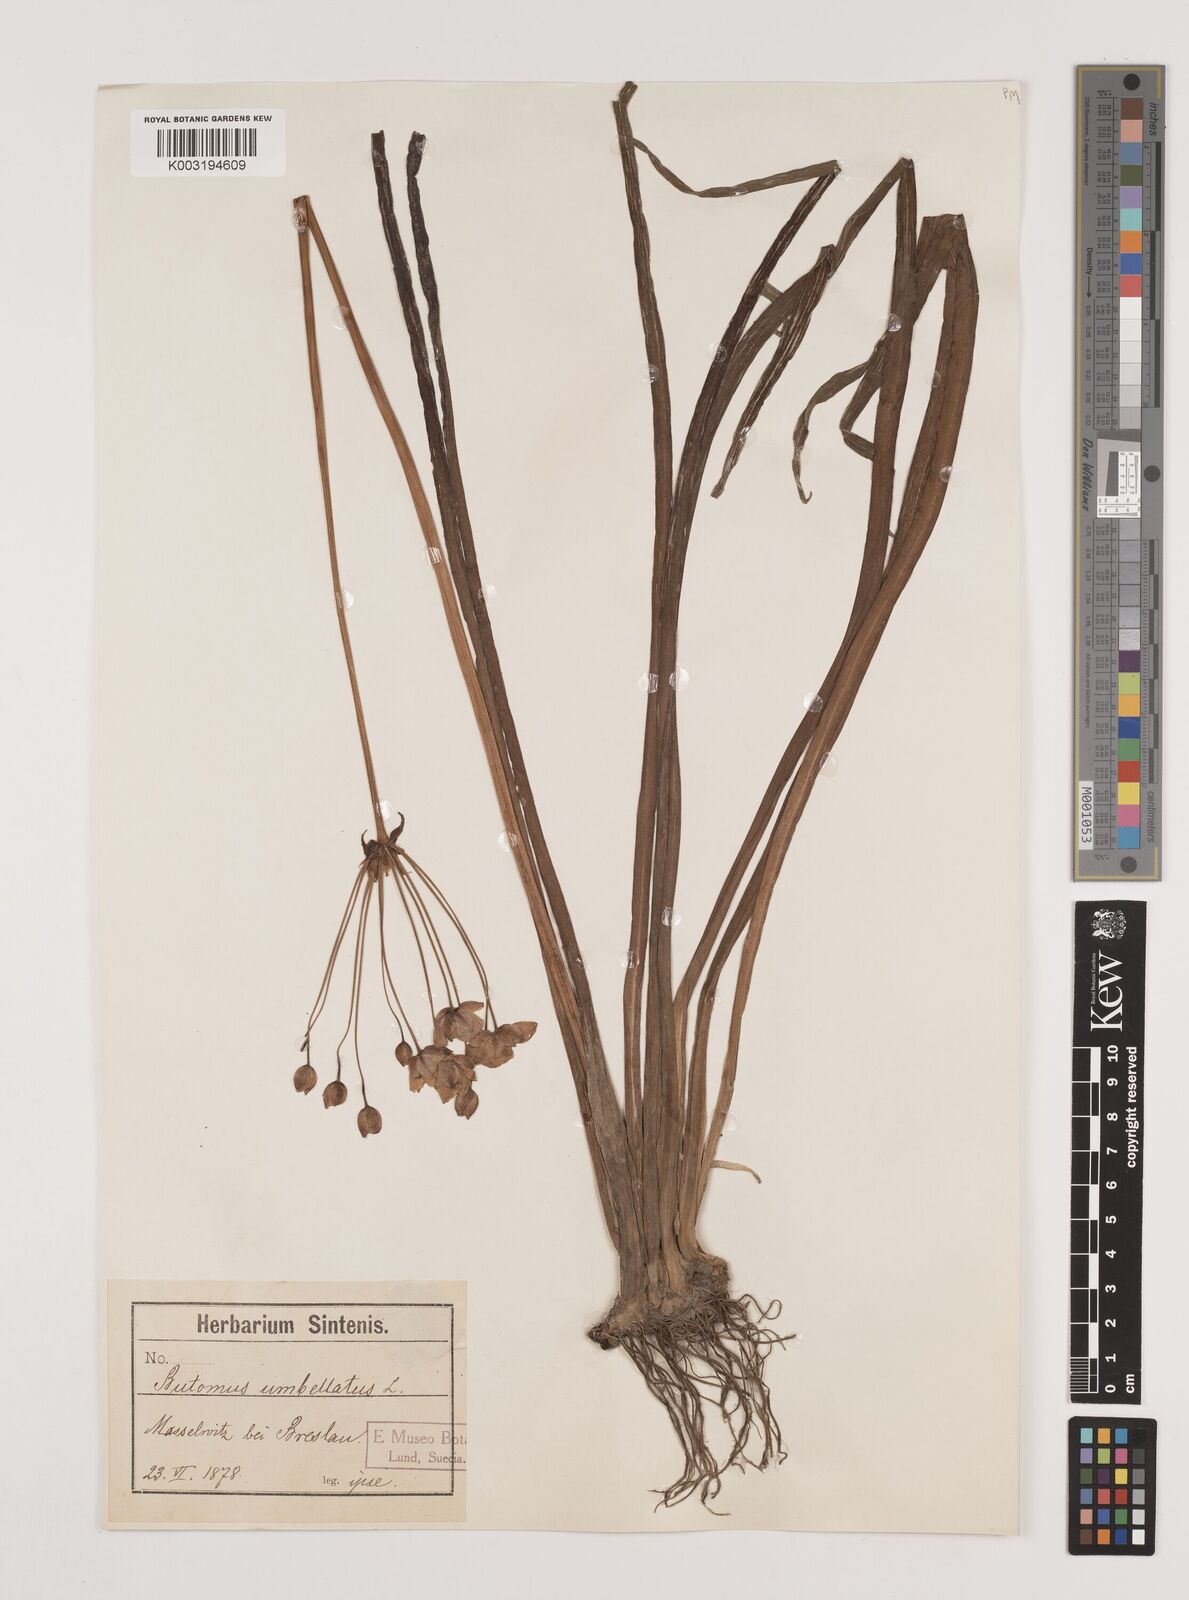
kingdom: Plantae
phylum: Tracheophyta
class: Liliopsida
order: Alismatales
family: Butomaceae
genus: Butomus
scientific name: Butomus umbellatus
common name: Flowering-rush
